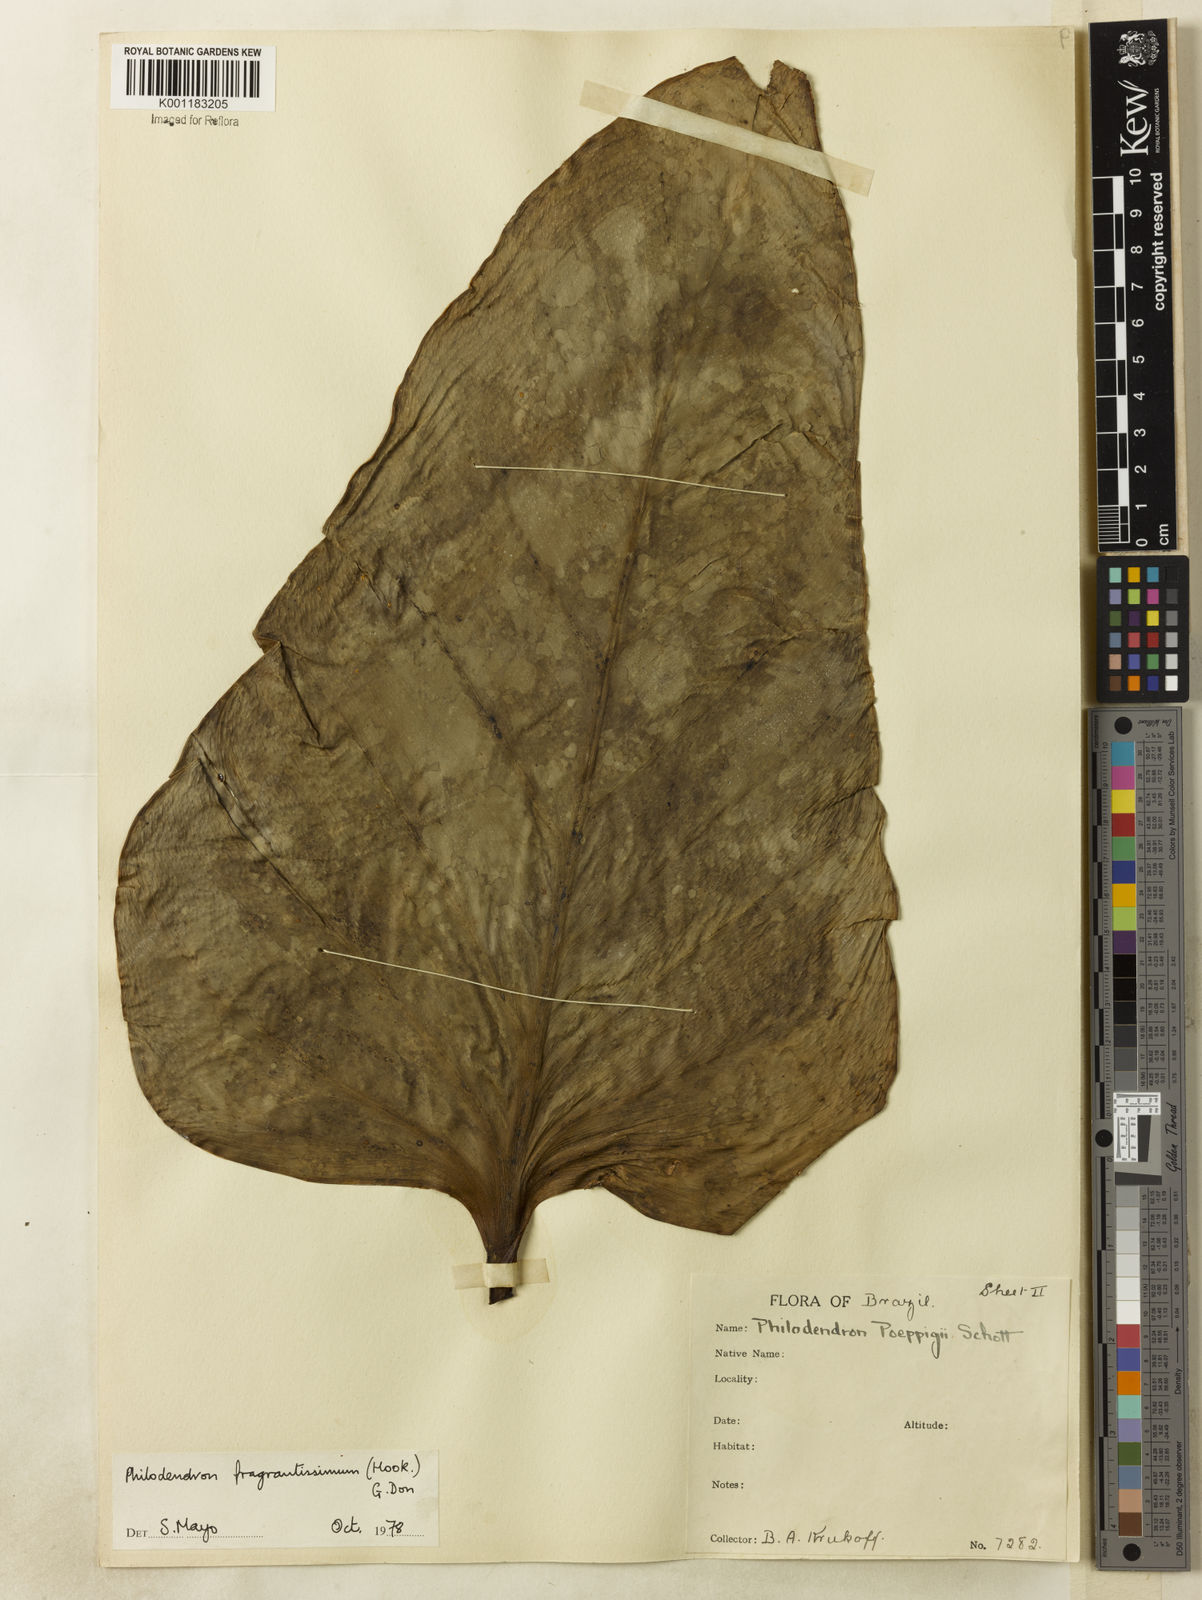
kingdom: Plantae
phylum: Tracheophyta
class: Liliopsida
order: Alismatales
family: Araceae
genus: Philodendron
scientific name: Philodendron
